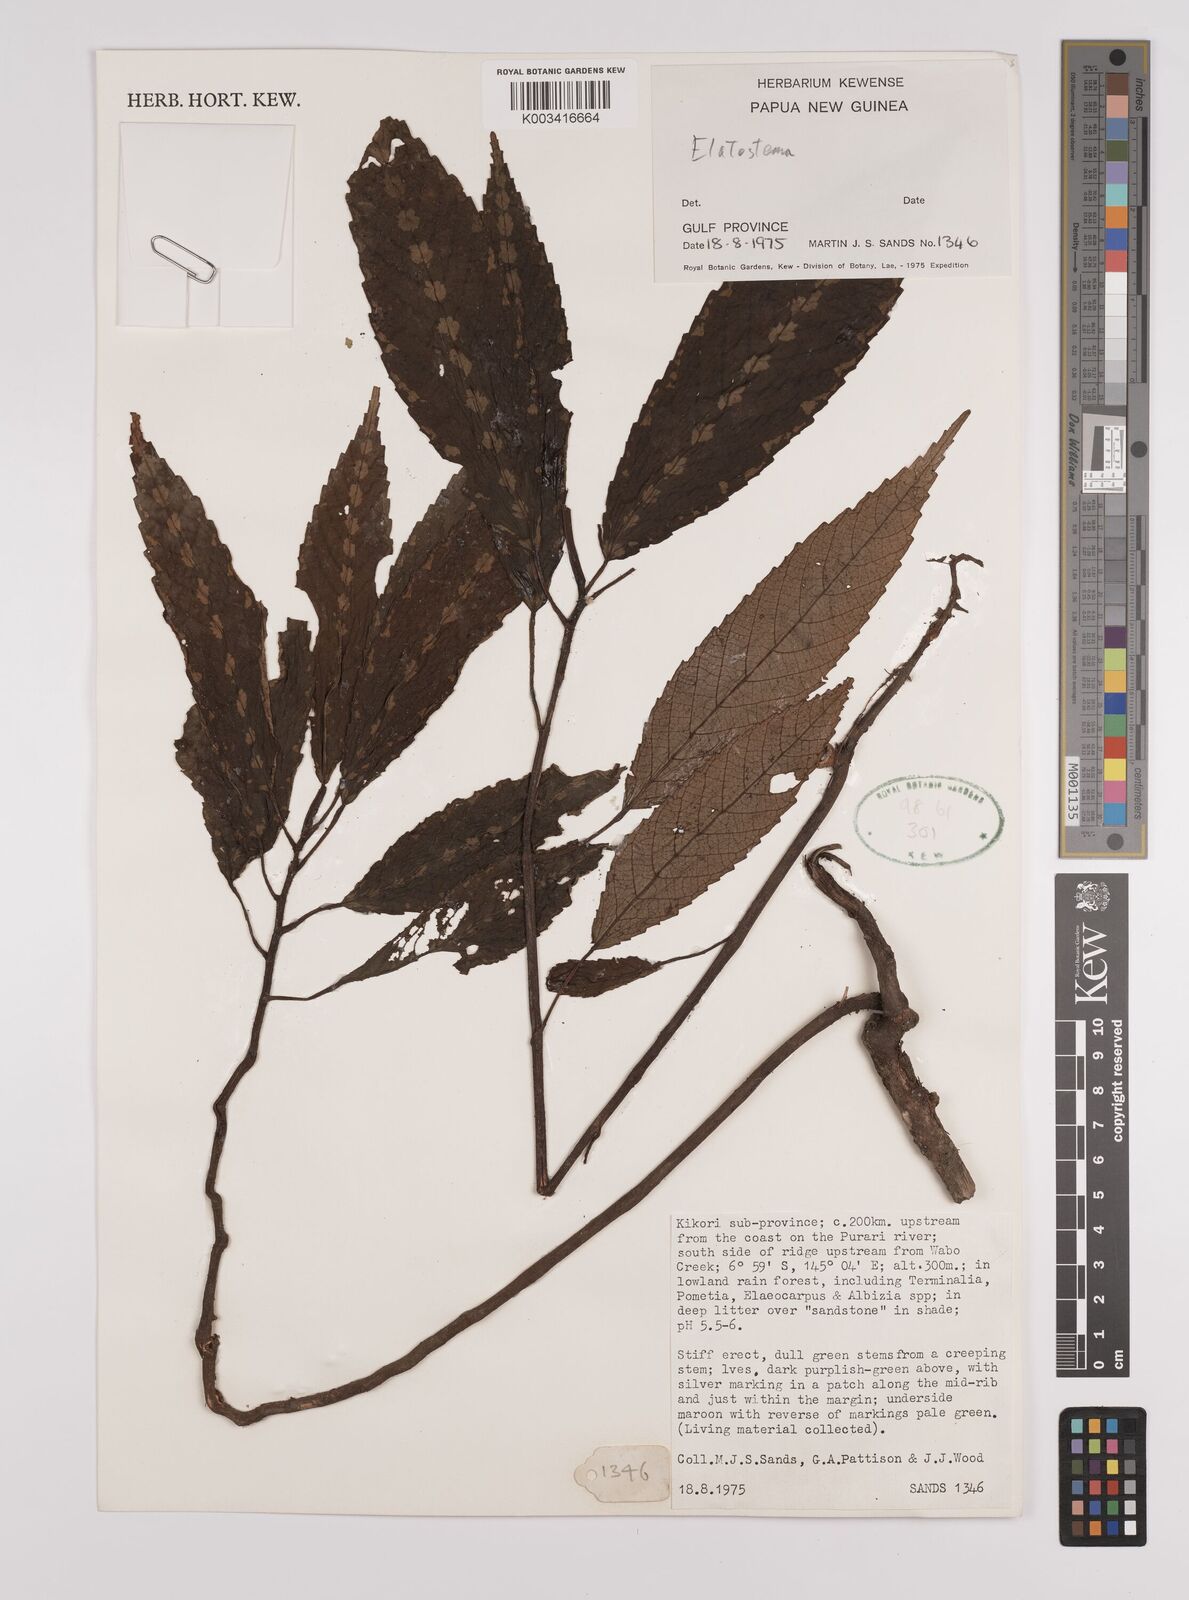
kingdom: Plantae
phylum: Tracheophyta
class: Magnoliopsida
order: Rosales
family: Urticaceae
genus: Elatostema
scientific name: Elatostema
